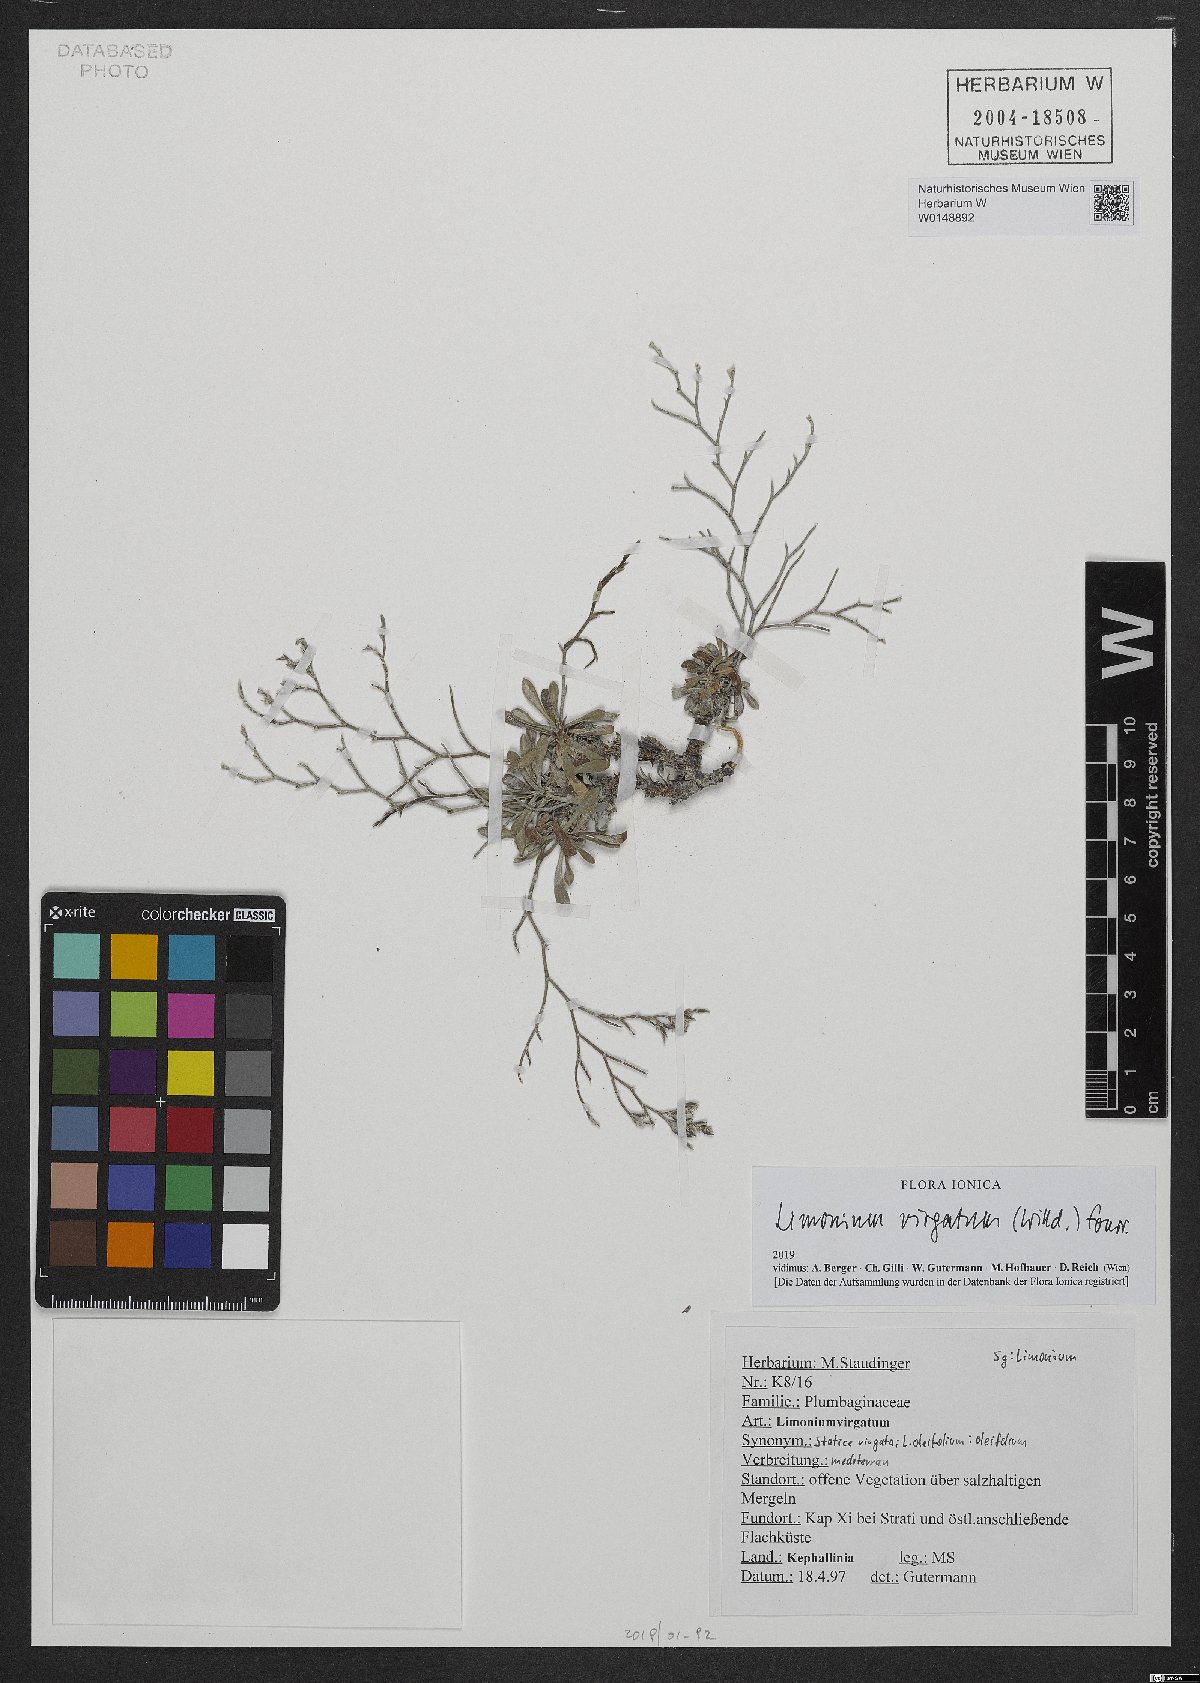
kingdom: Plantae
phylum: Tracheophyta
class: Magnoliopsida
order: Caryophyllales
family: Plumbaginaceae
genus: Limonium
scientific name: Limonium virgatum
